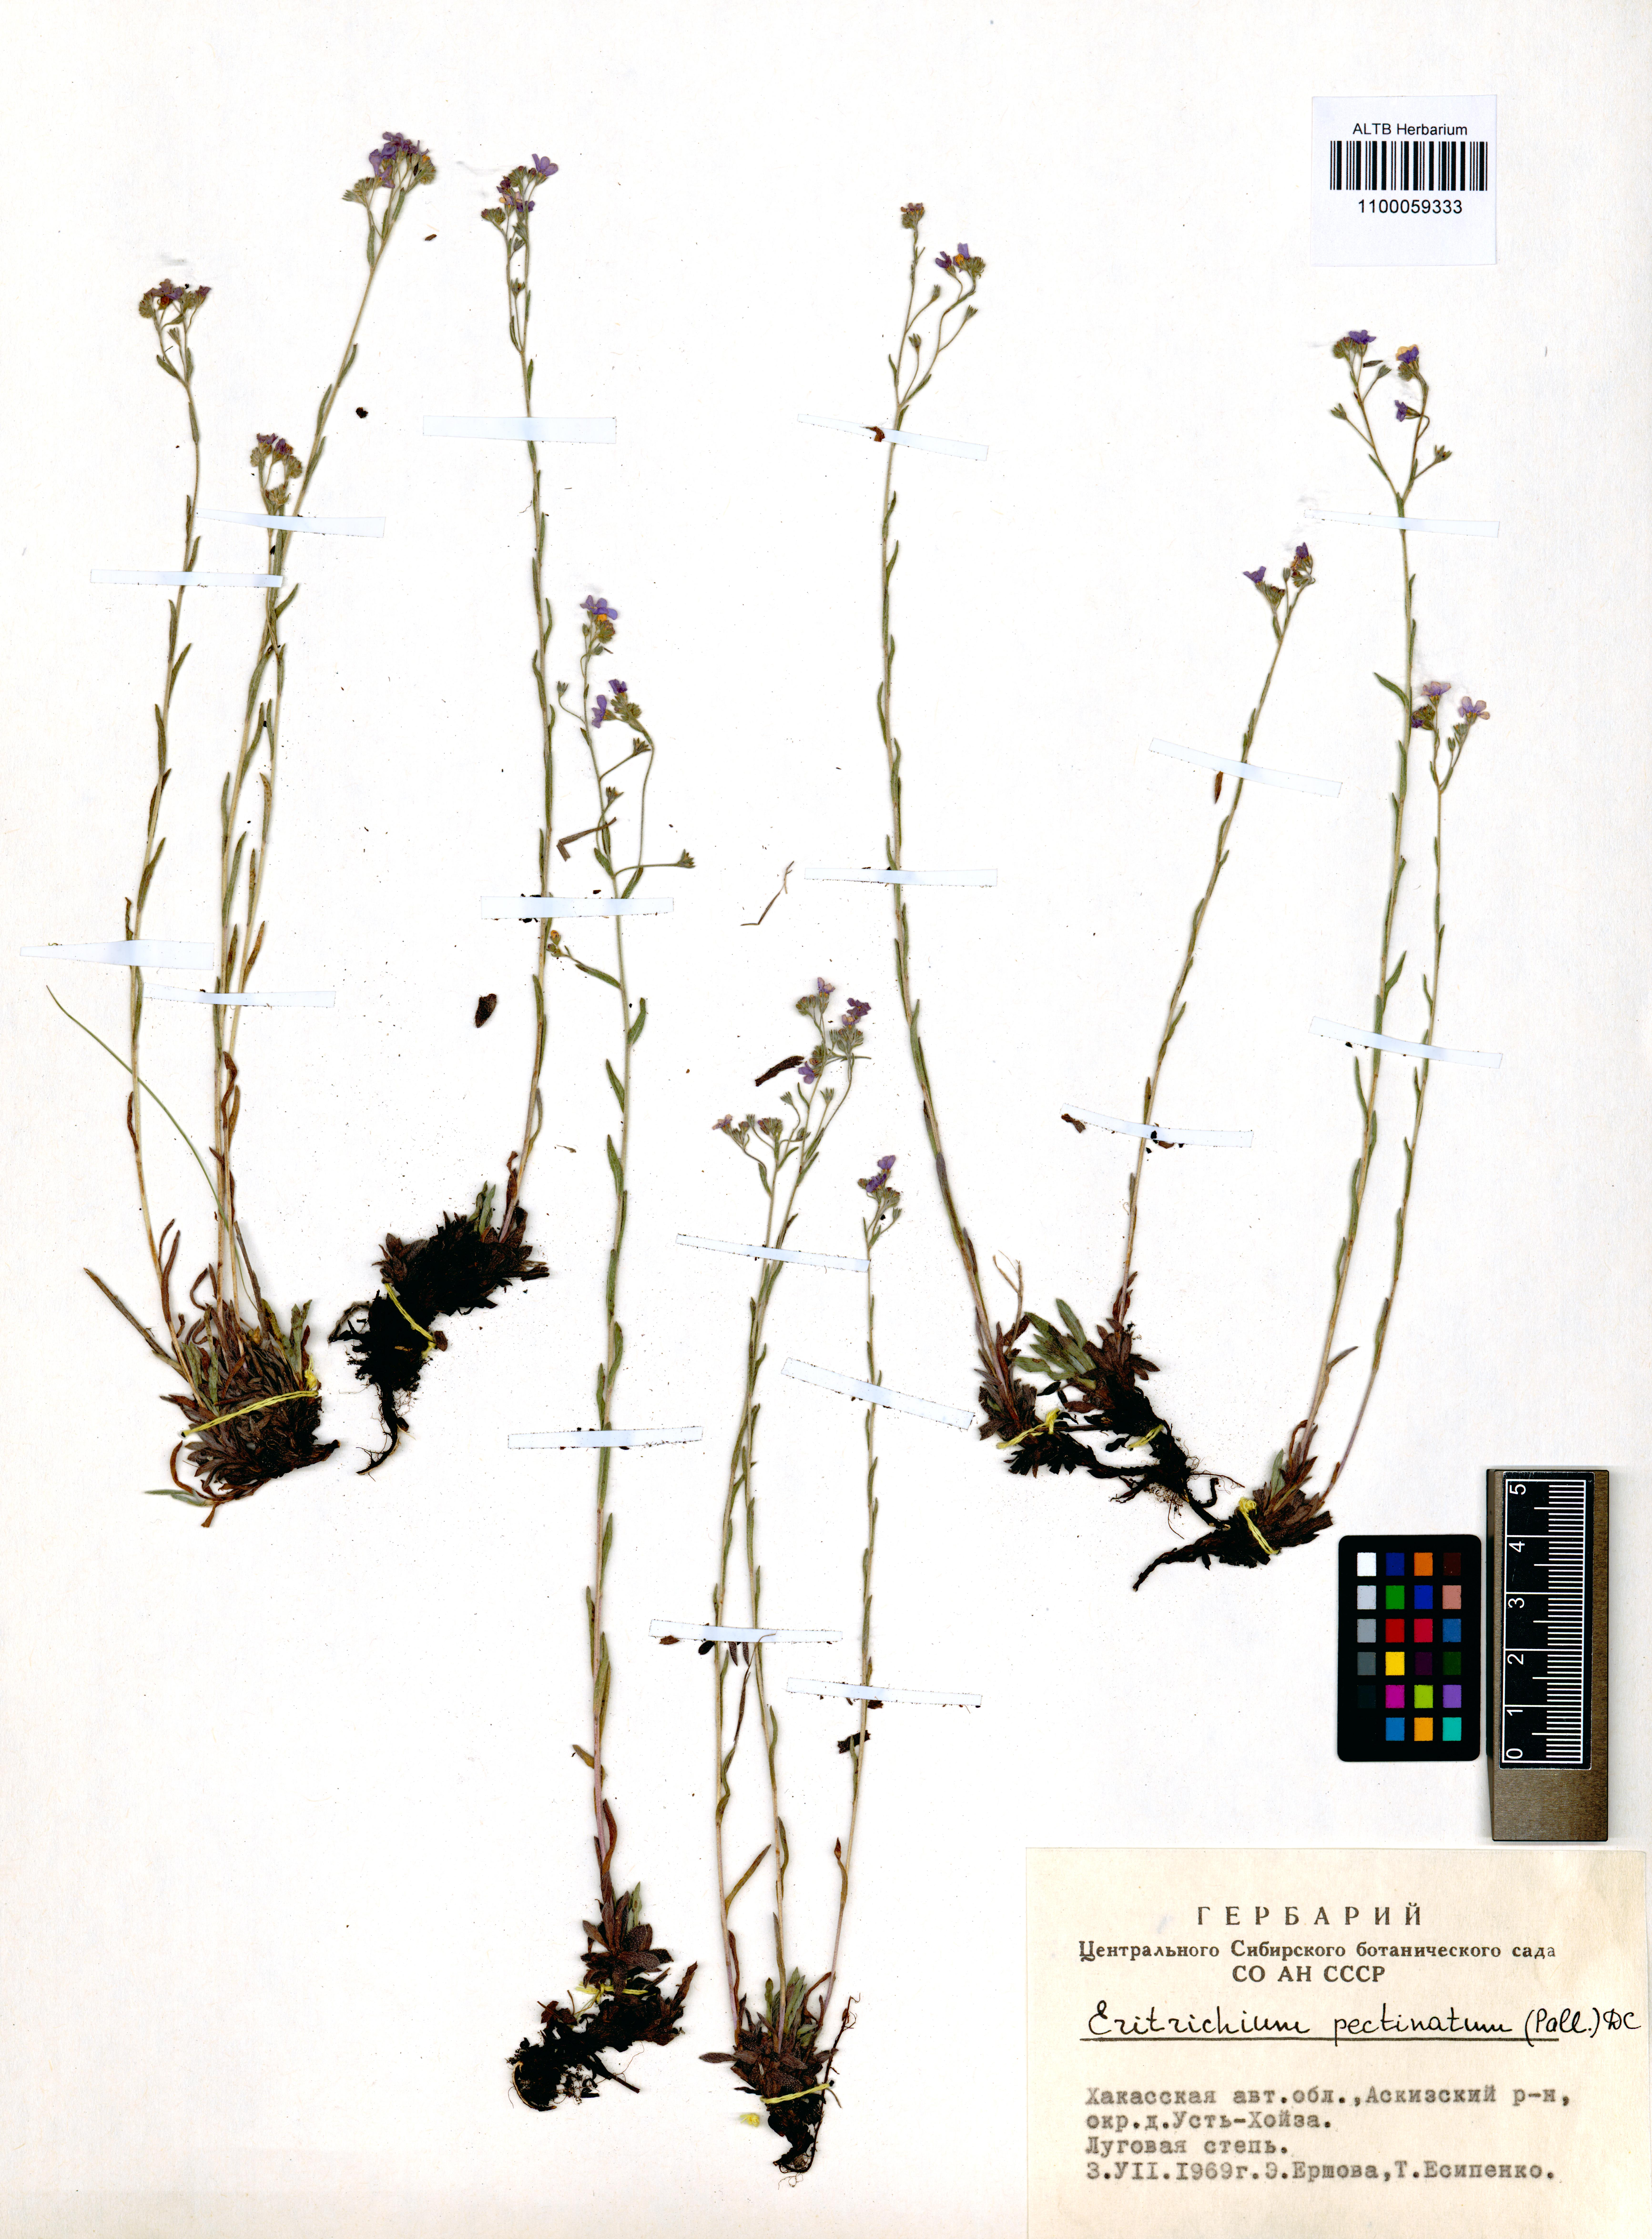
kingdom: Plantae
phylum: Tracheophyta
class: Magnoliopsida
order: Boraginales
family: Boraginaceae
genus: Eritrichium
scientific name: Eritrichium pectinatum
